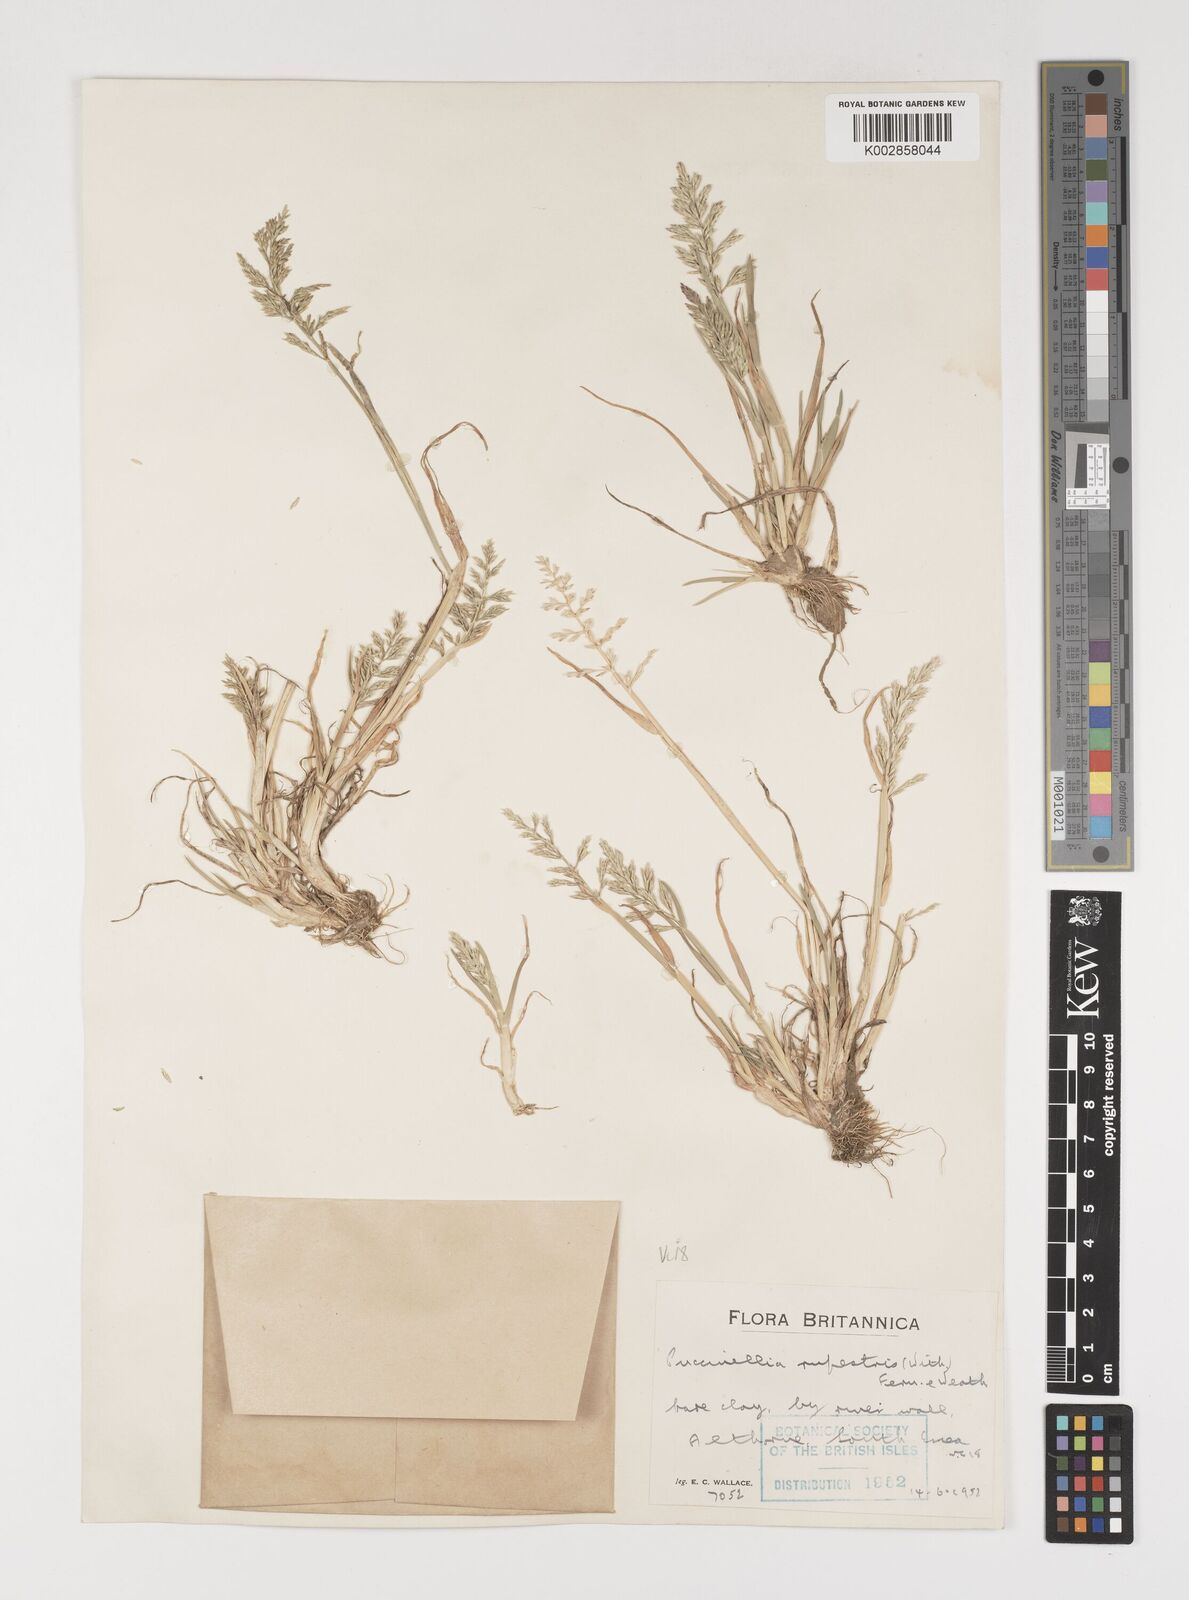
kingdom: Plantae
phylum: Tracheophyta
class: Liliopsida
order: Poales
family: Poaceae
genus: Puccinellia
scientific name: Puccinellia rupestris
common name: Stiff saltmarsh-grass
